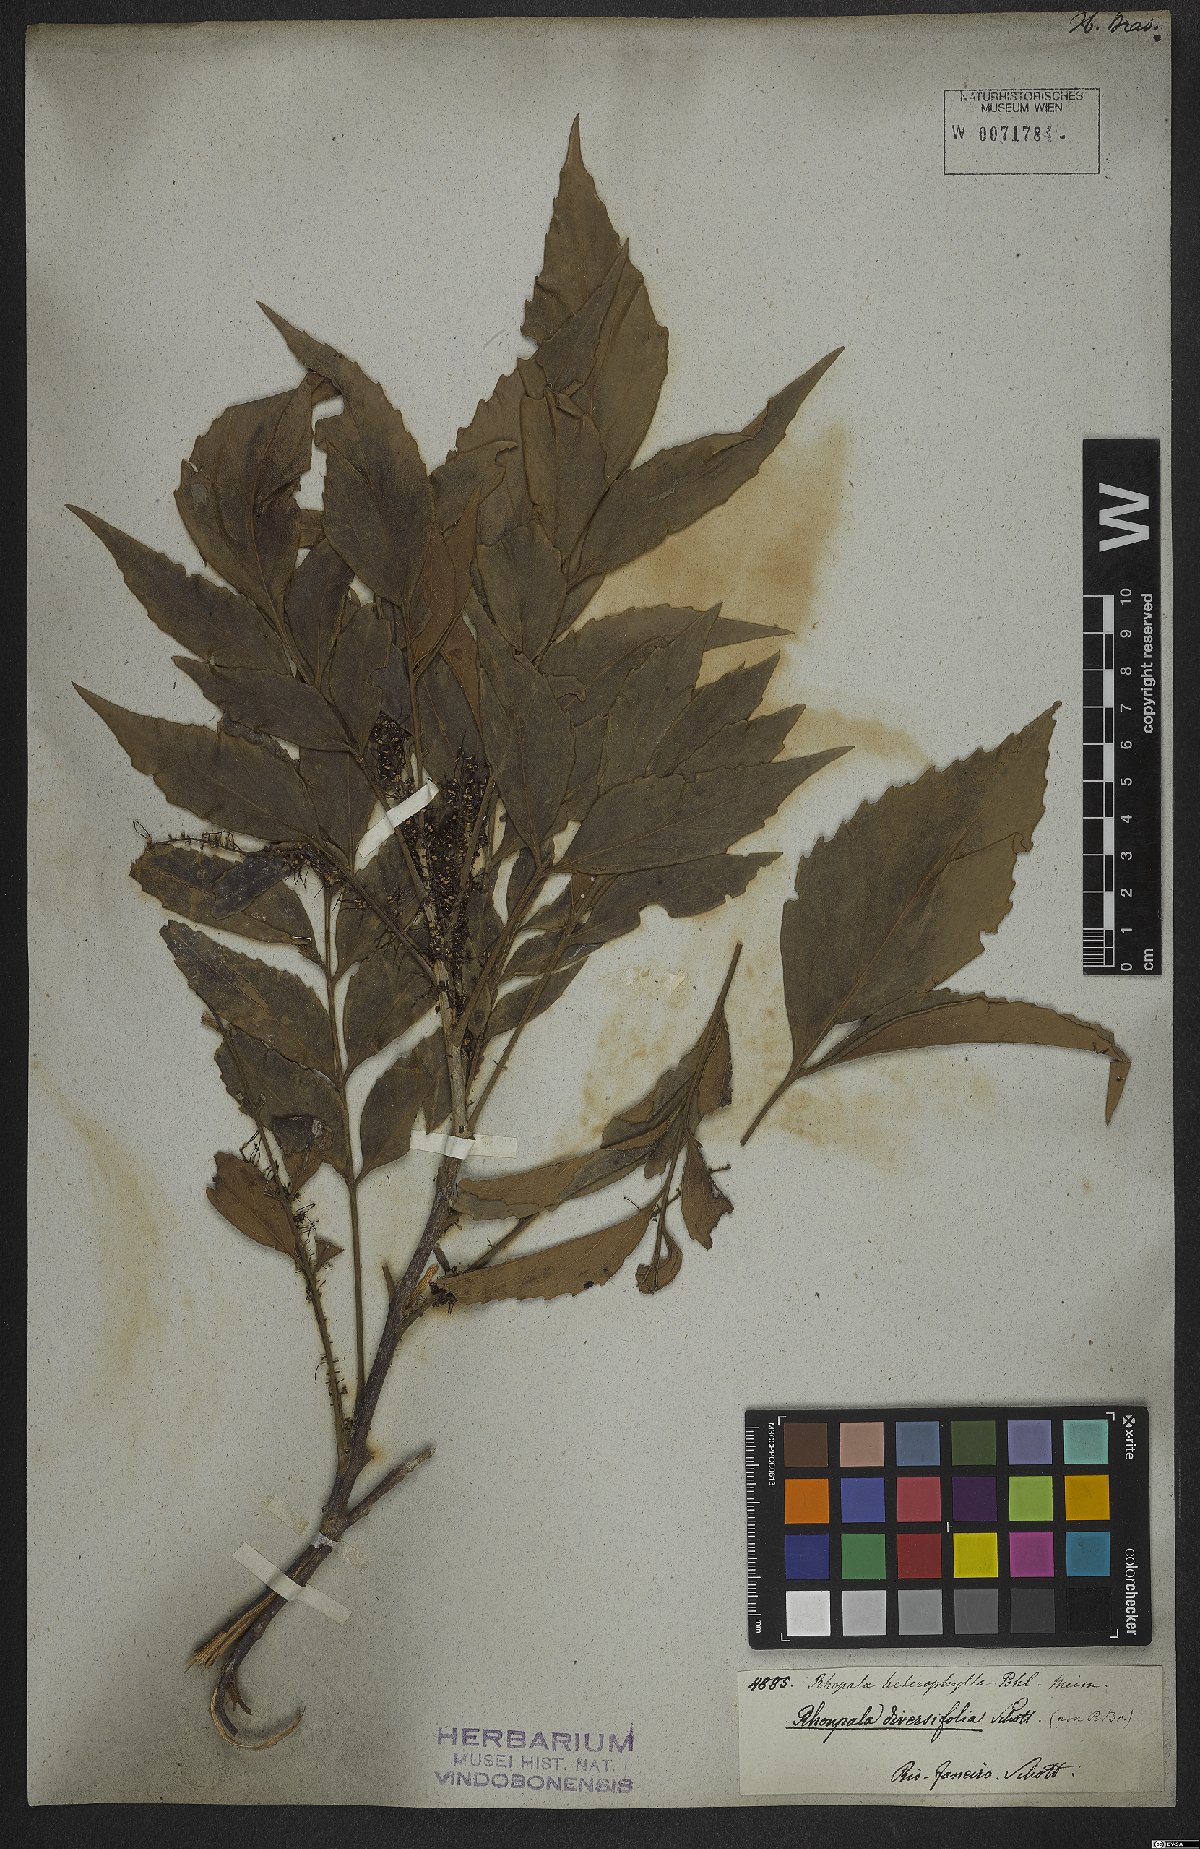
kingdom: Plantae
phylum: Tracheophyta
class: Magnoliopsida
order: Proteales
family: Proteaceae
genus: Roupala
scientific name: Roupala montana
